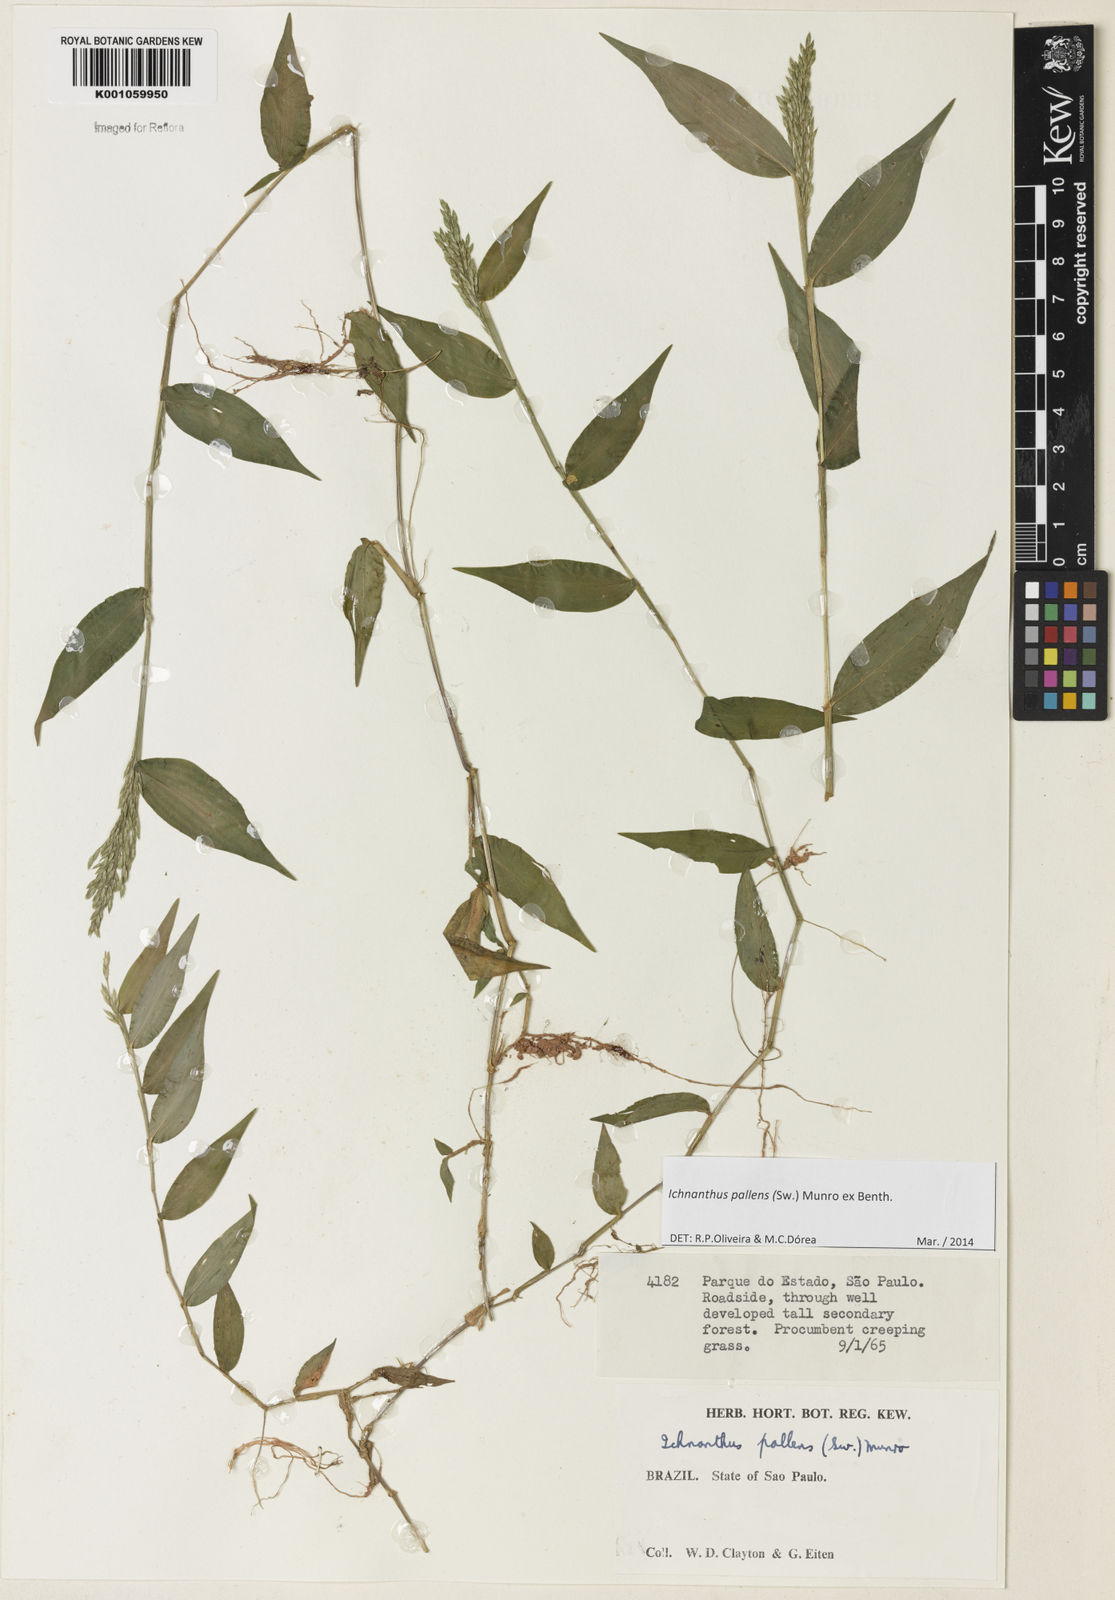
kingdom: Plantae
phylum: Tracheophyta
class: Liliopsida
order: Poales
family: Poaceae
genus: Ichnanthus
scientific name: Ichnanthus pallens
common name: Water grass
